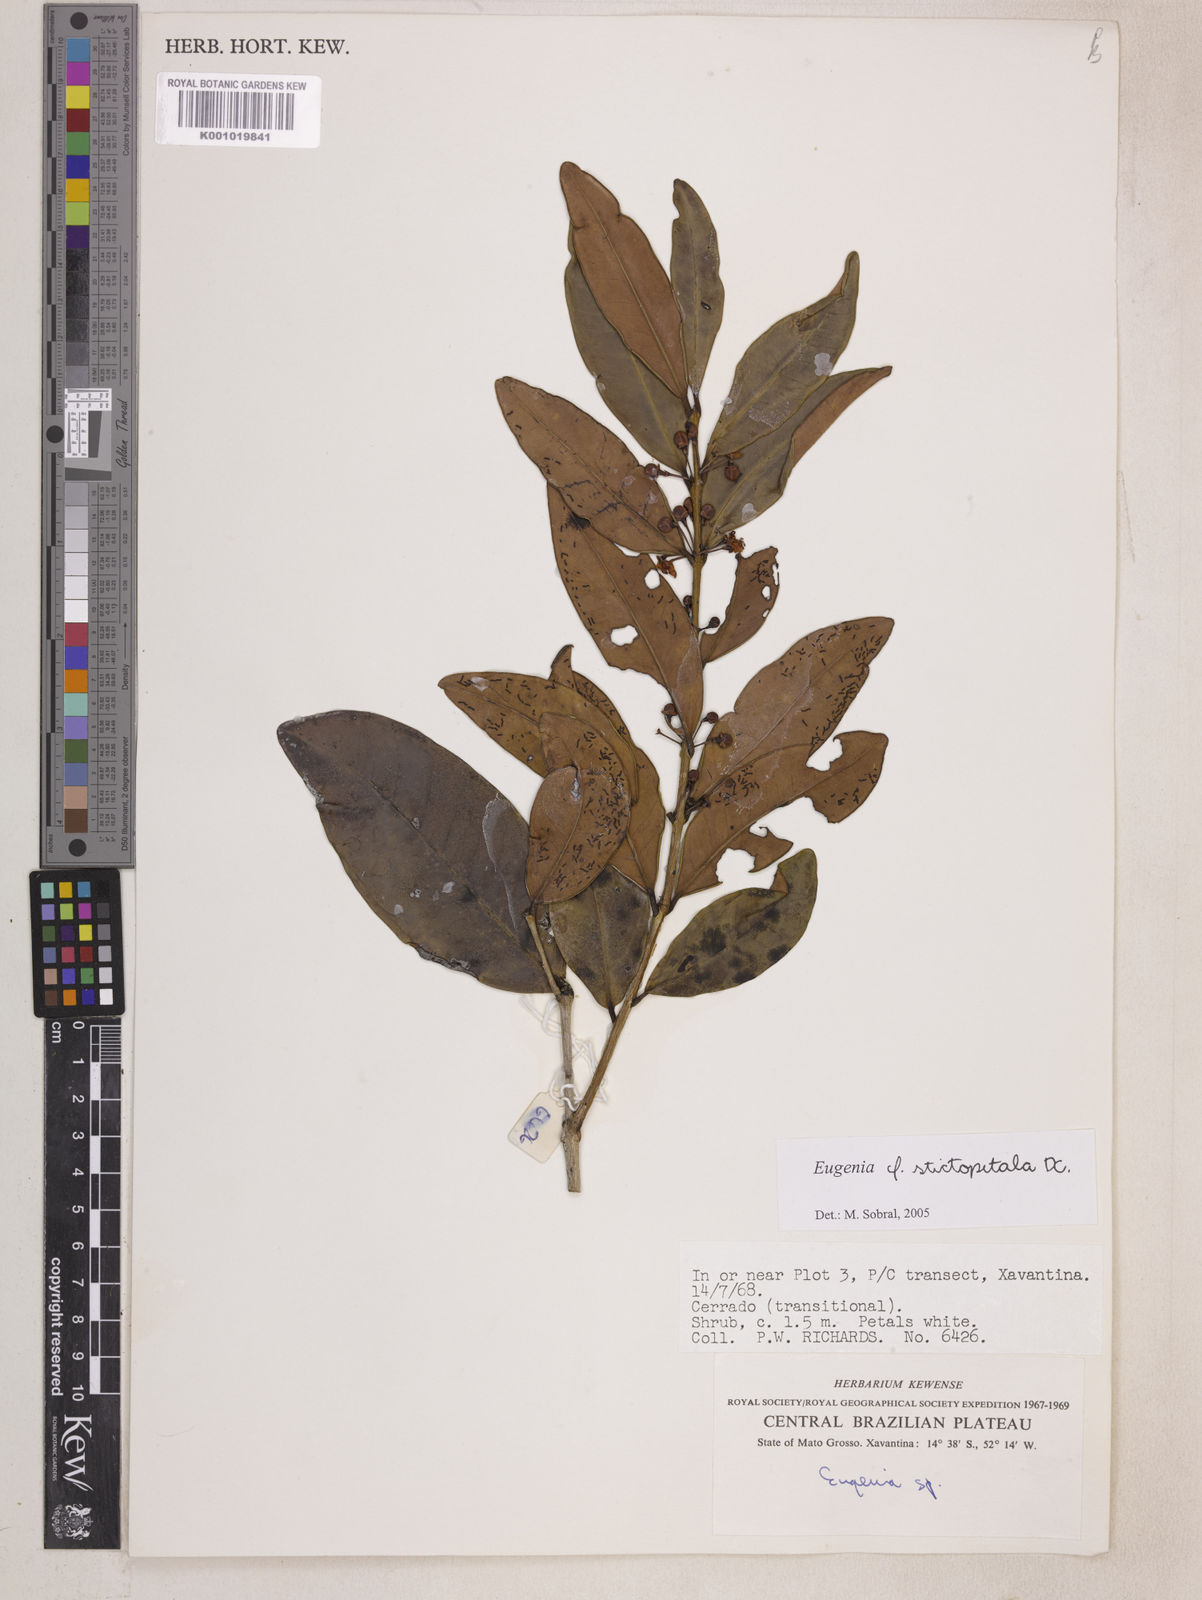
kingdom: Plantae
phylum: Tracheophyta
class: Magnoliopsida
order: Myrtales
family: Myrtaceae
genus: Eugenia
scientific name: Eugenia stictopetala
